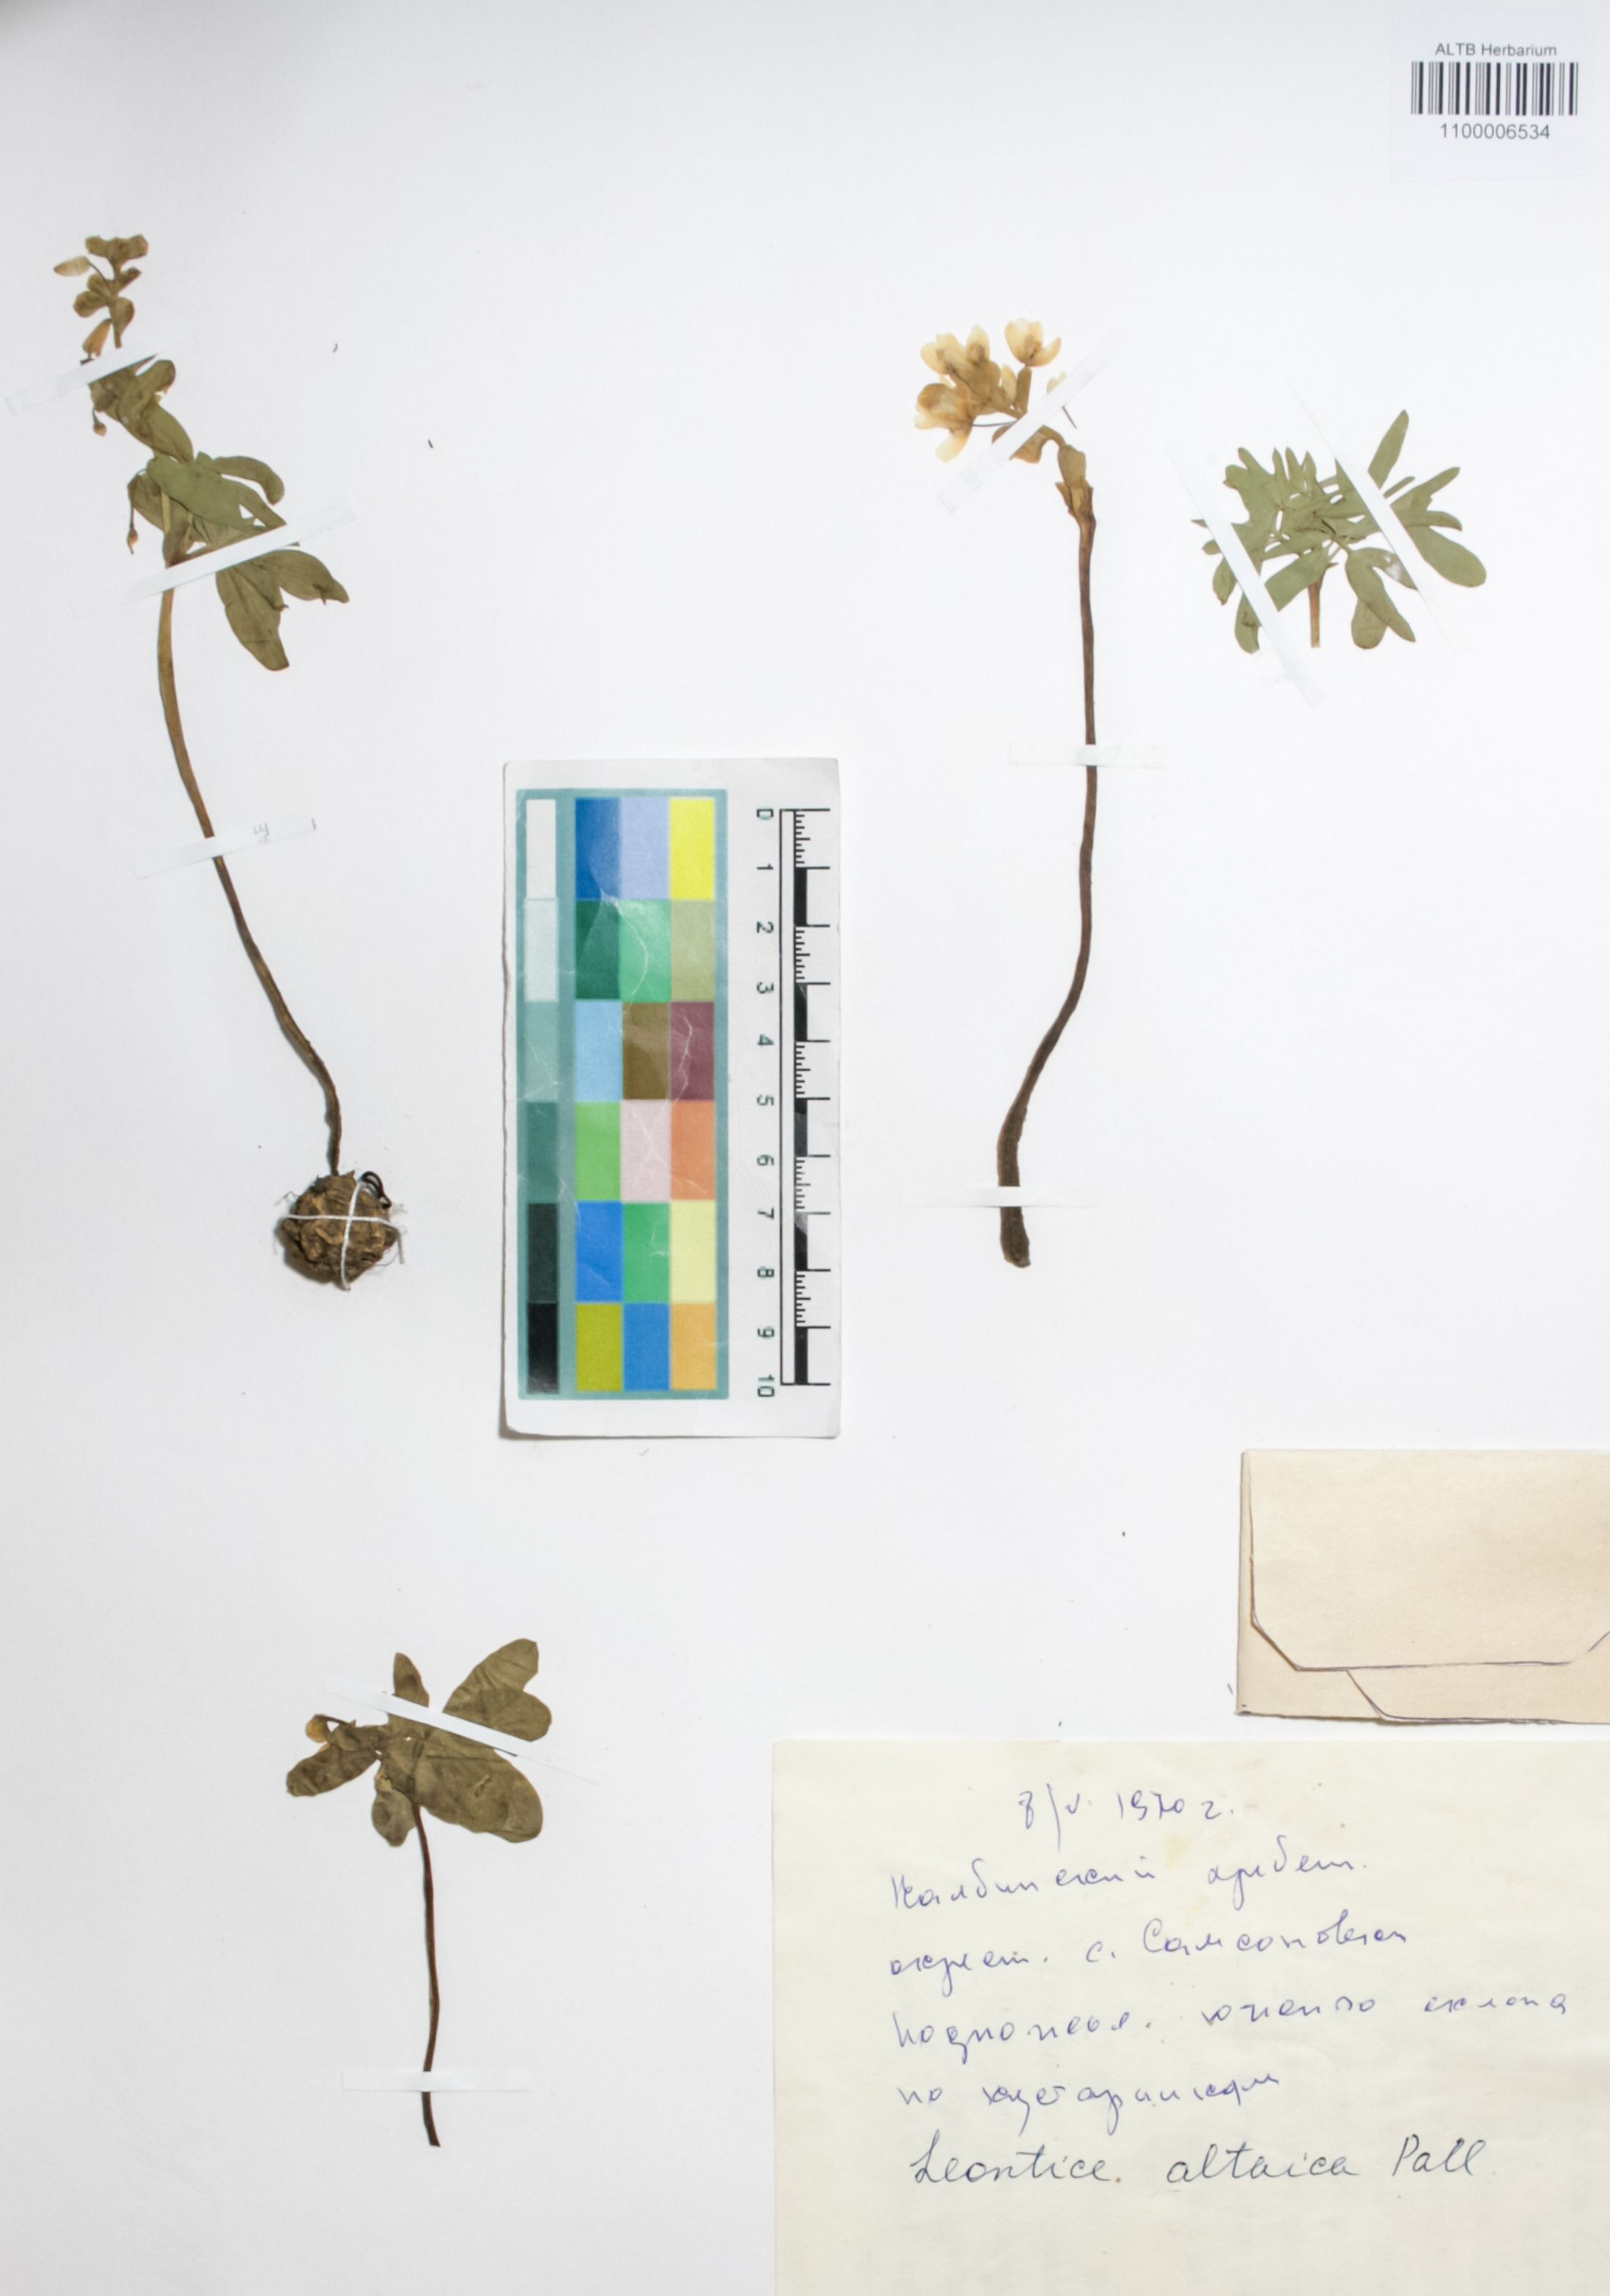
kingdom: Plantae
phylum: Tracheophyta
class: Magnoliopsida
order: Ranunculales
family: Berberidaceae
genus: Gymnospermium
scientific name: Gymnospermium altaicum
